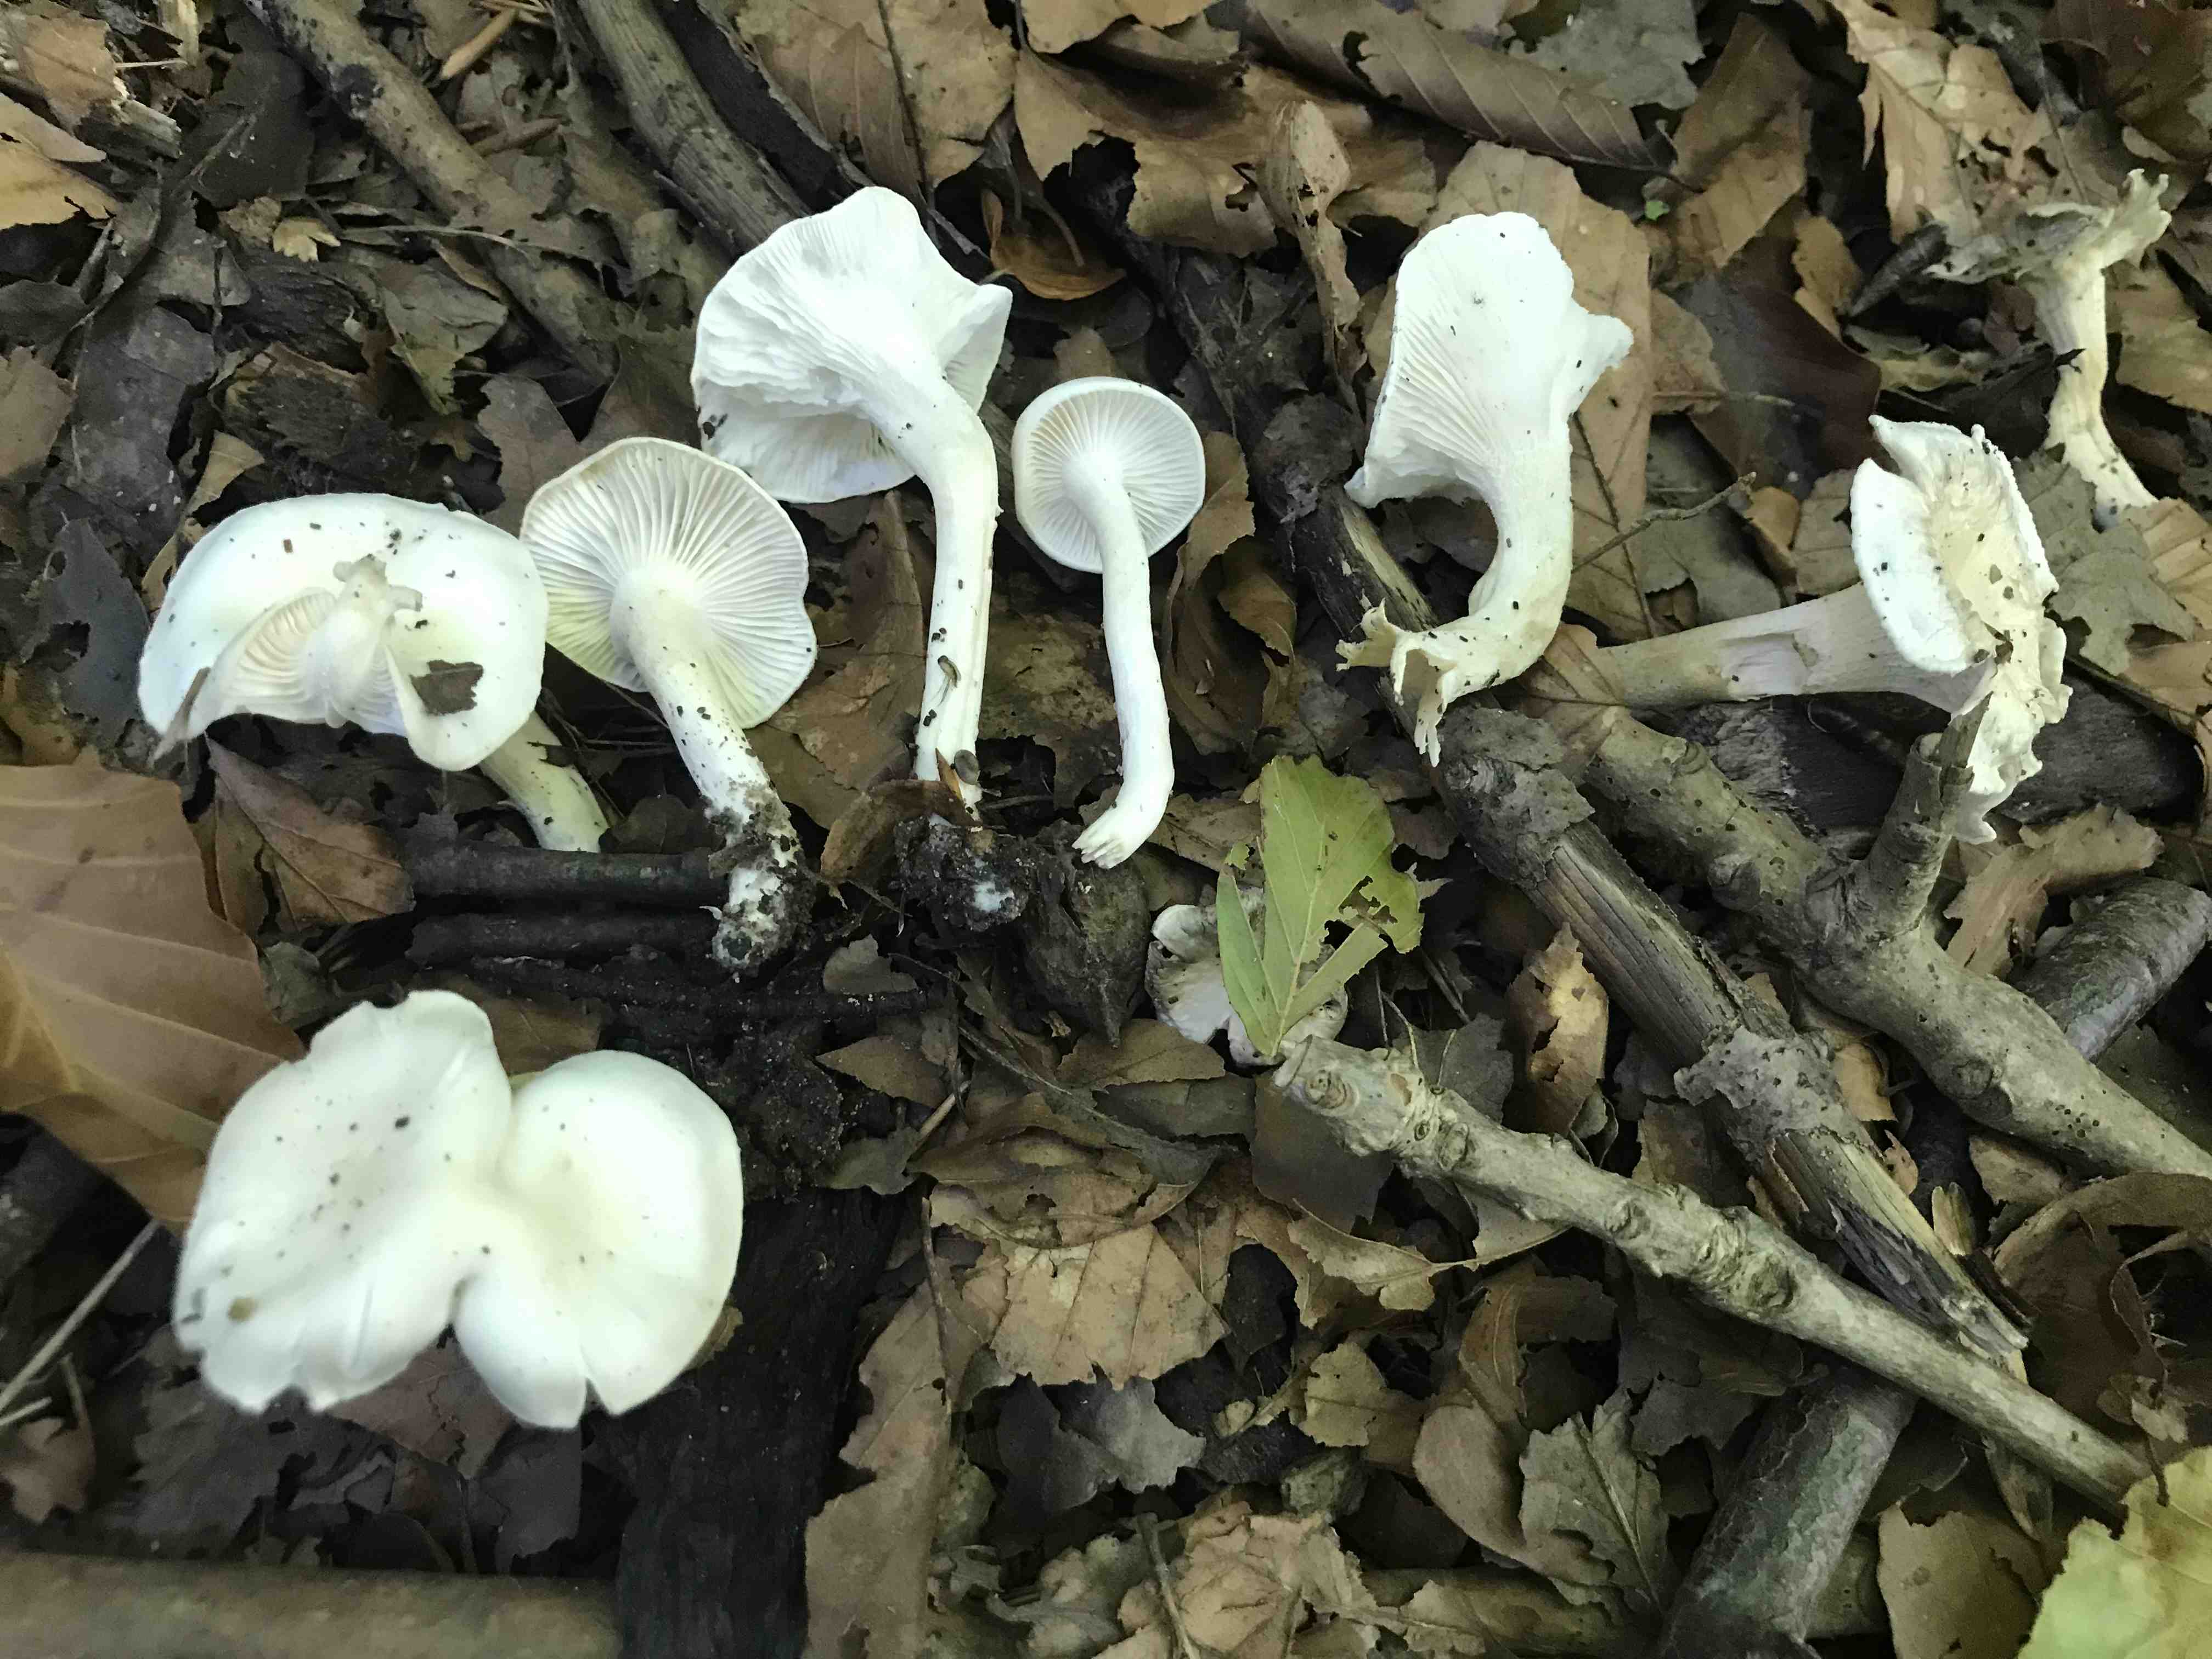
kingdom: Fungi
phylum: Basidiomycota
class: Agaricomycetes
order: Agaricales
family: Hygrophoraceae
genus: Hygrophorus
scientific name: Hygrophorus eburneus
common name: elfenbens-sneglehat
